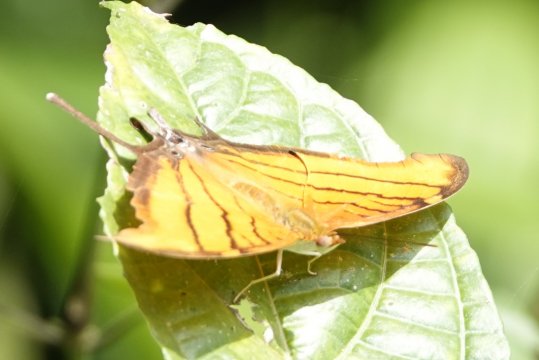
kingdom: Animalia
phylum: Arthropoda
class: Insecta
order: Lepidoptera
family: Nymphalidae
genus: Marpesia
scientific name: Marpesia petreus
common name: Ruddy Daggerwing
